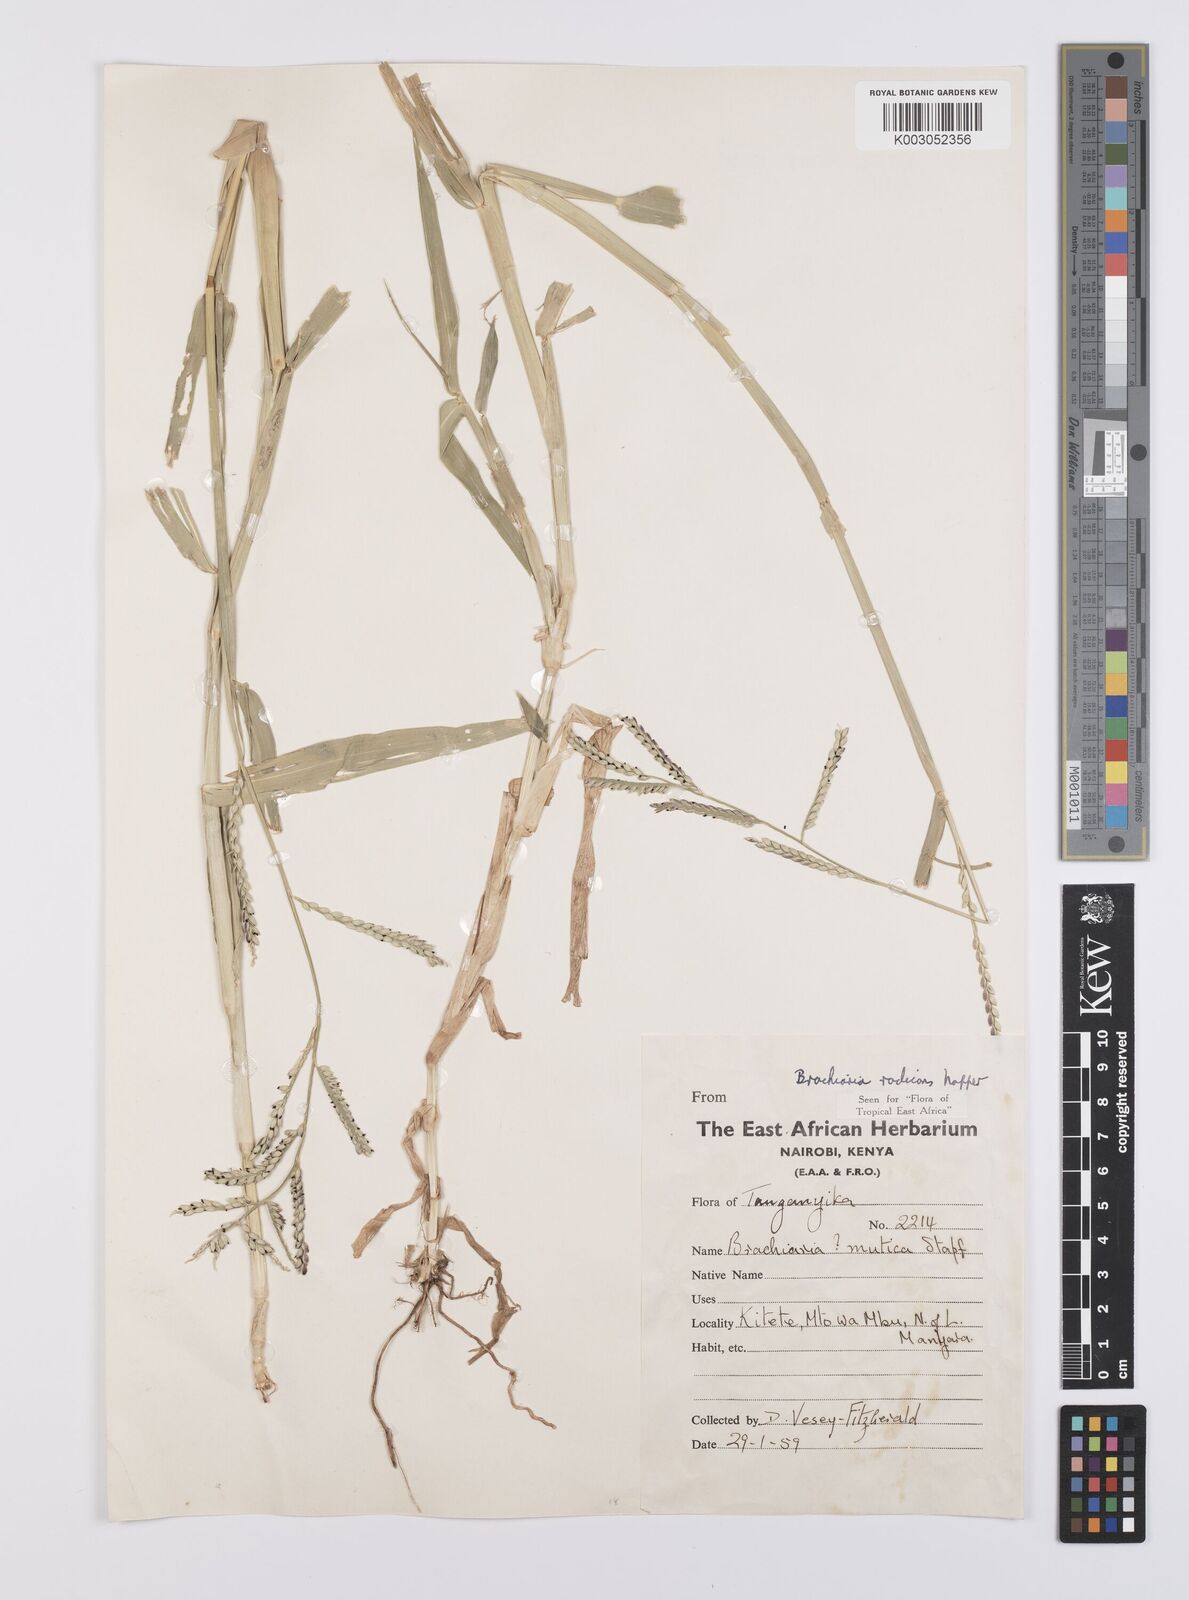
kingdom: Plantae
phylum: Tracheophyta
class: Liliopsida
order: Poales
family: Poaceae
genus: Urochloa
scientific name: Urochloa arrecta
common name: African signalgrass
